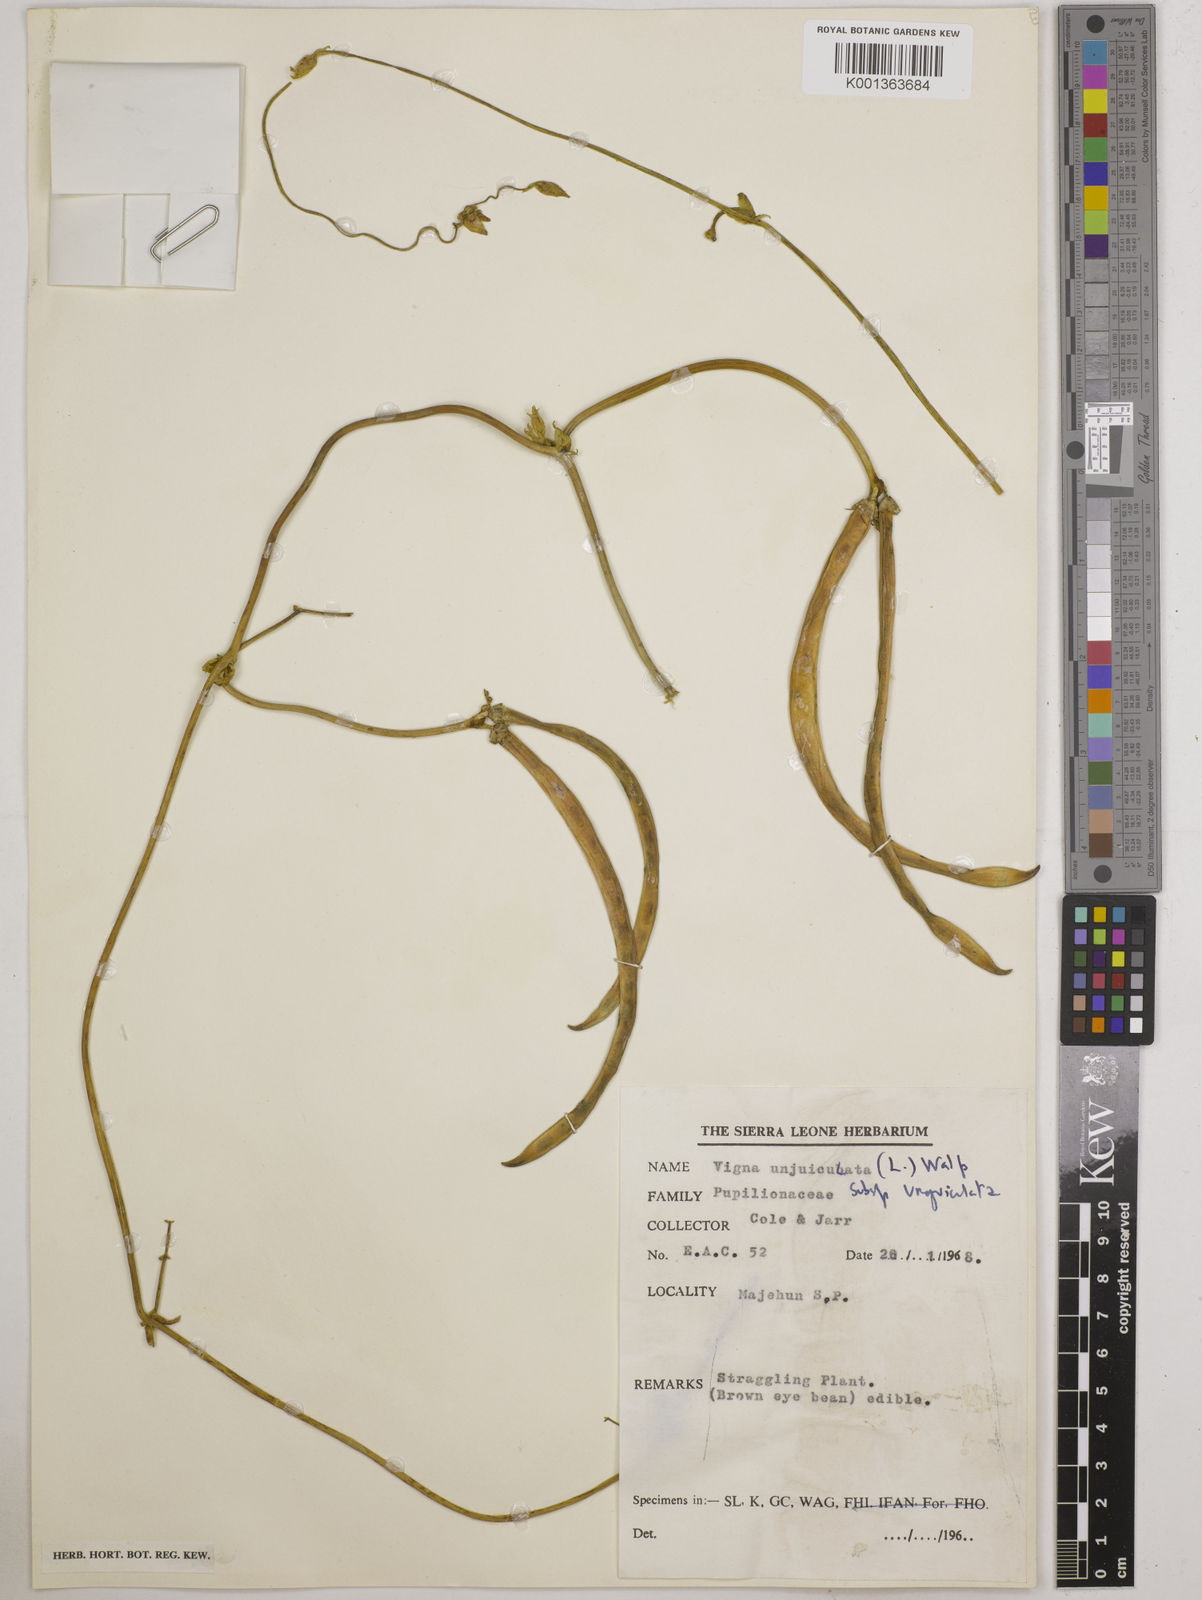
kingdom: Plantae
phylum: Tracheophyta
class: Magnoliopsida
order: Fabales
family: Fabaceae
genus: Vigna
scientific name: Vigna unguiculata
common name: Cowpea
